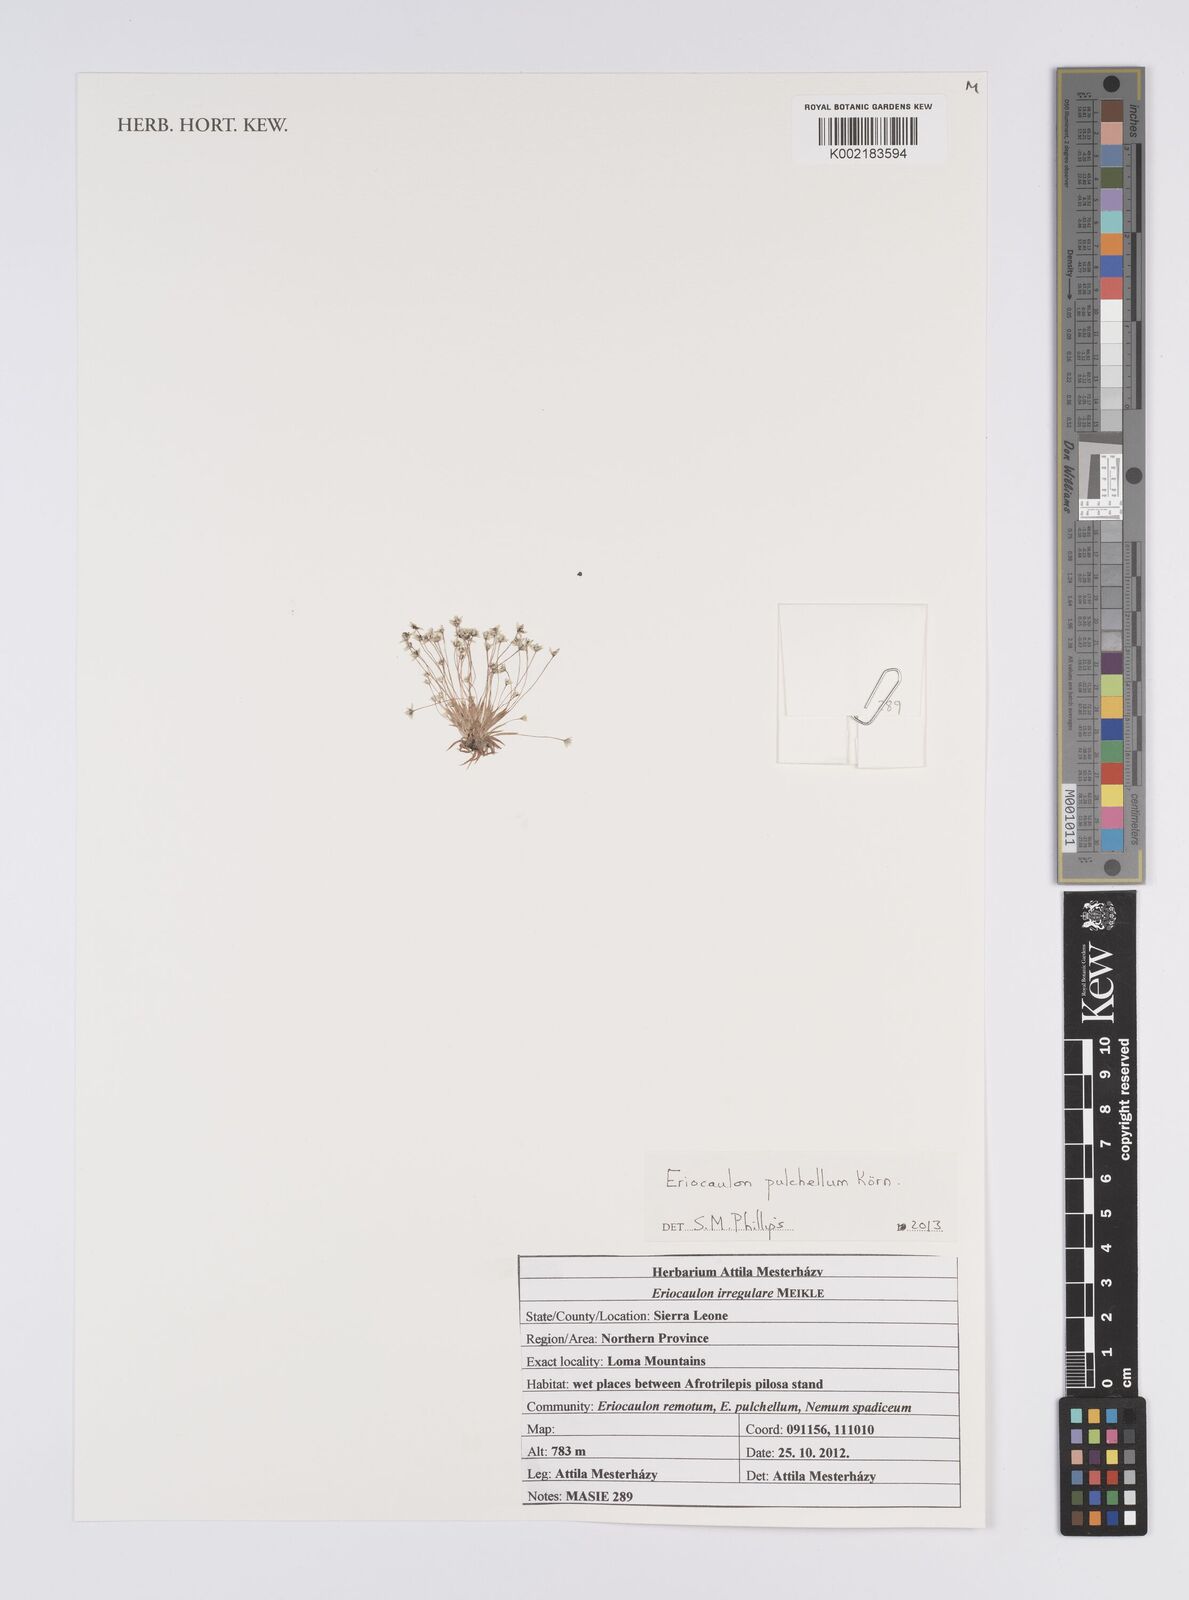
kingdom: Plantae
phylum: Tracheophyta
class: Liliopsida
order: Poales
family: Eriocaulaceae
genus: Eriocaulon
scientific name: Eriocaulon pulchellum
